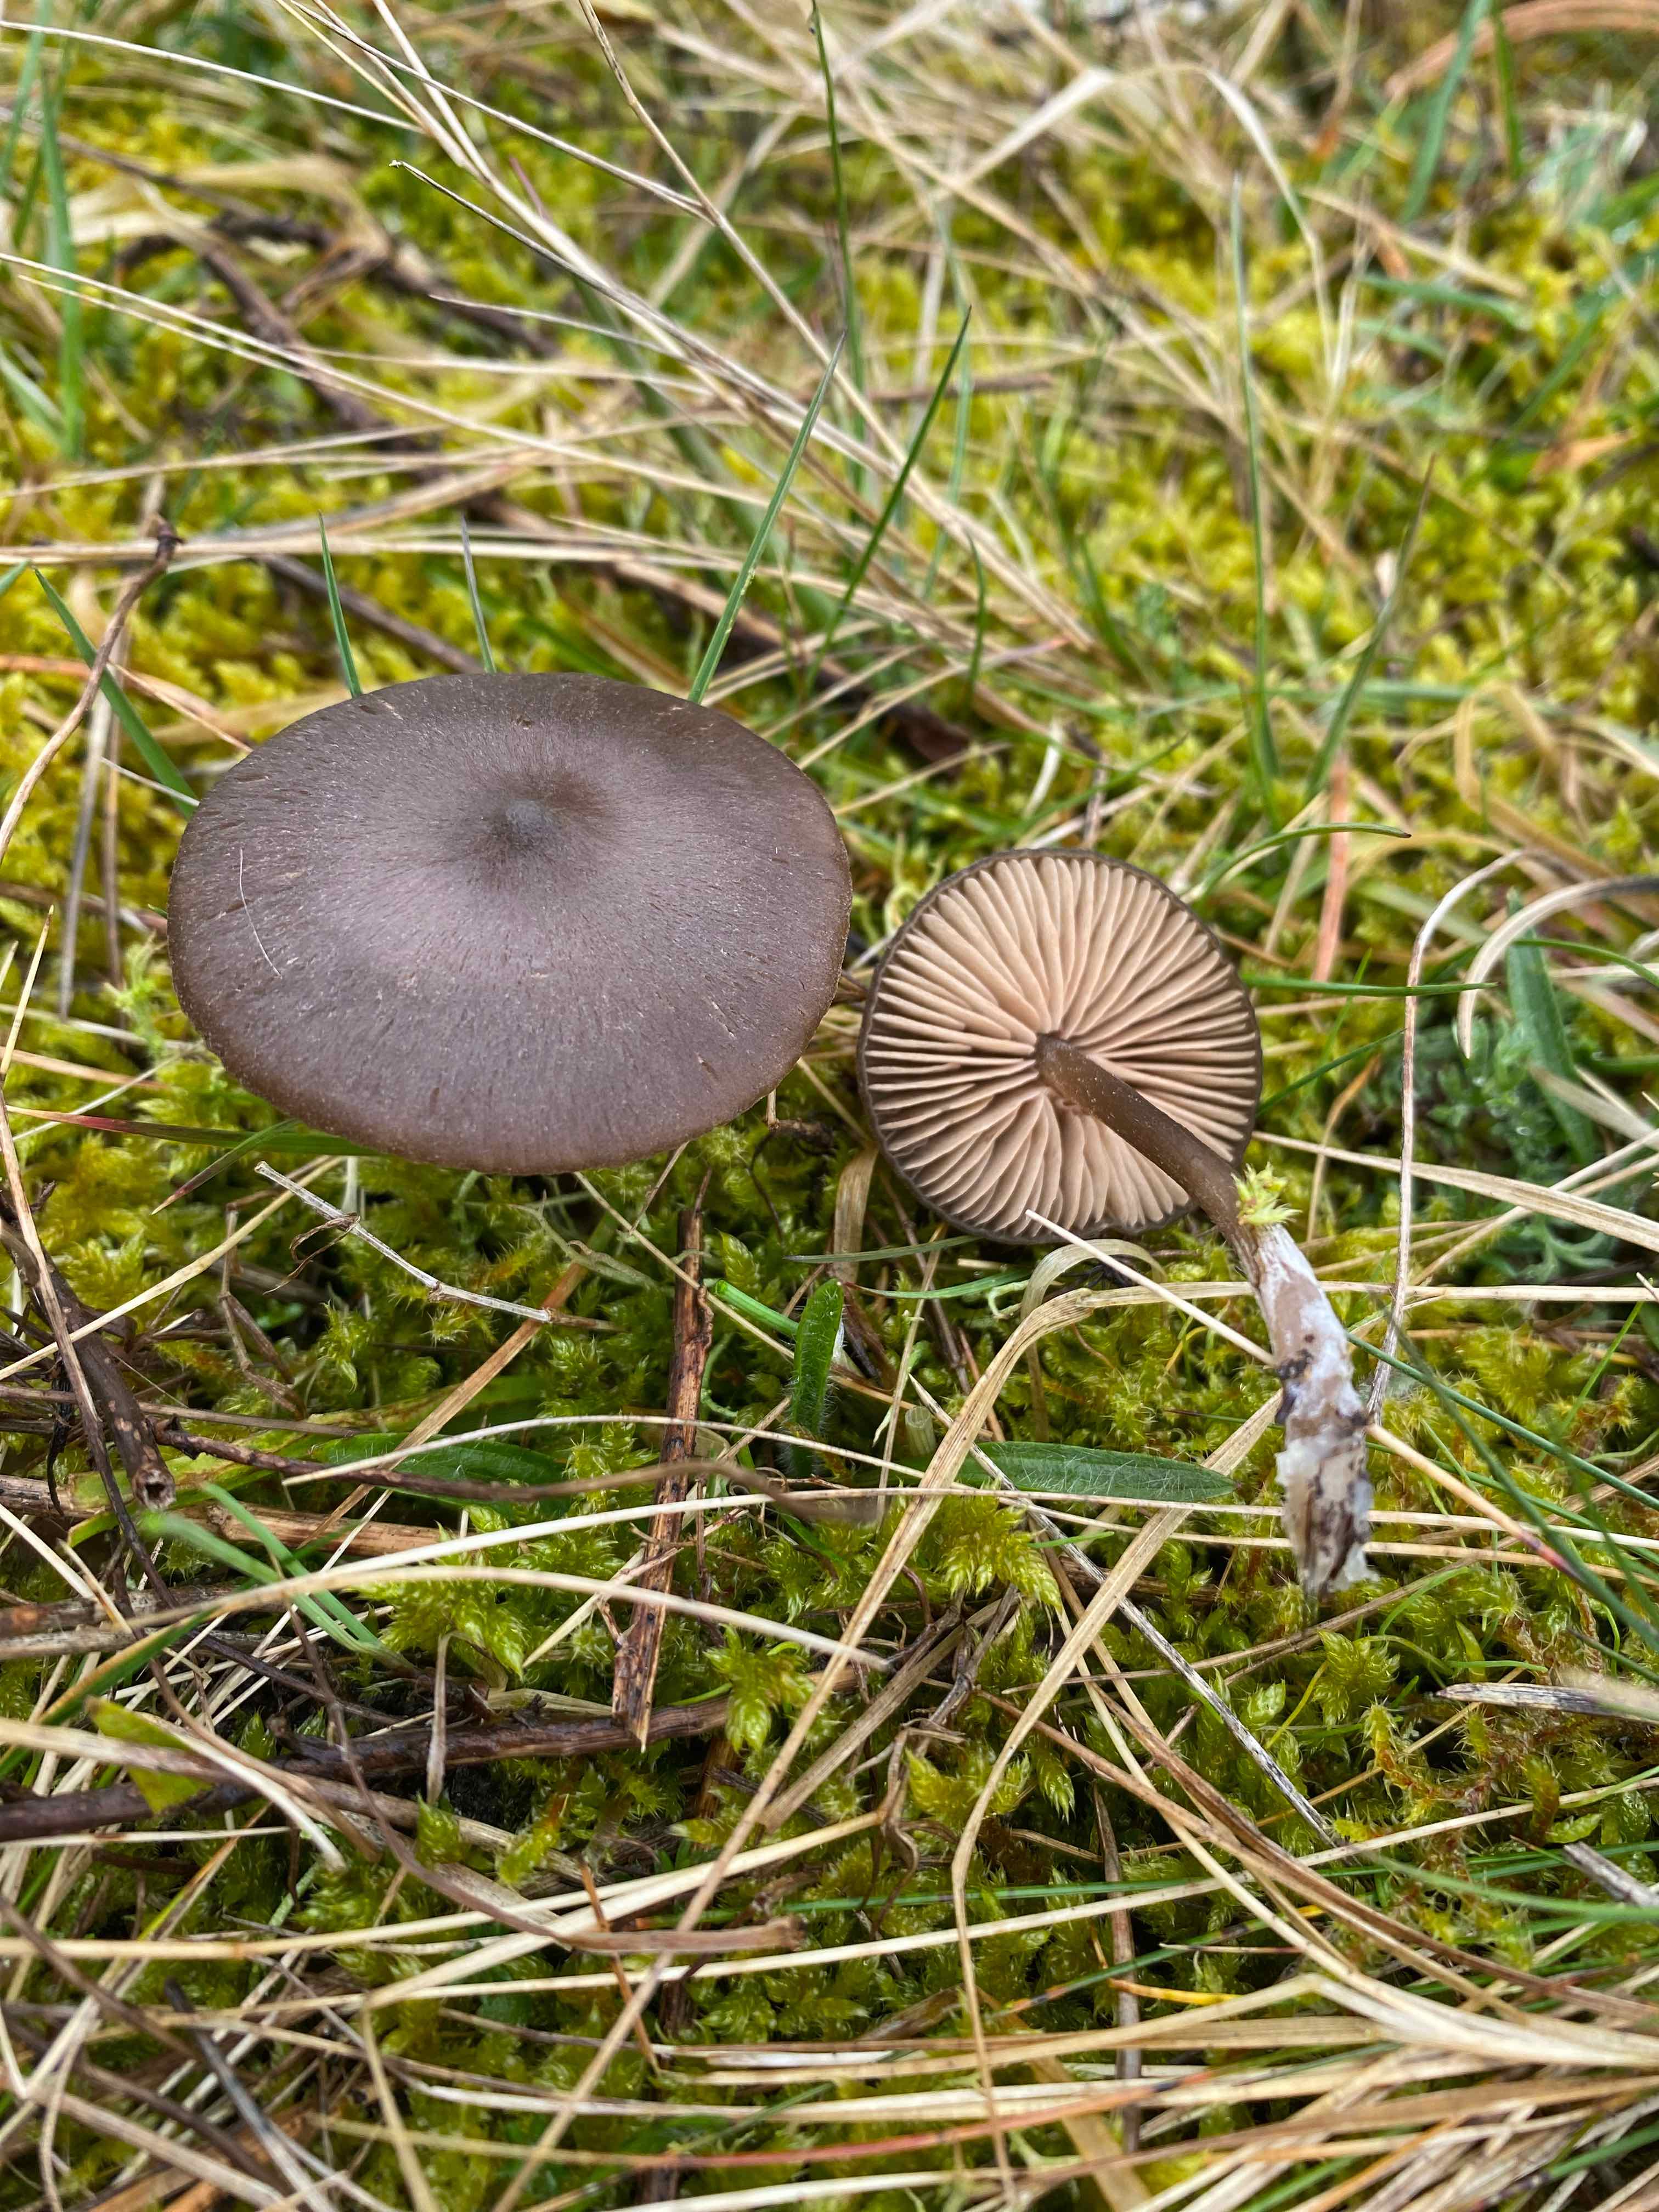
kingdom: Fungi
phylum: Basidiomycota
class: Agaricomycetes
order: Agaricales
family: Entolomataceae
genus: Entoloma
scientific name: Entoloma
